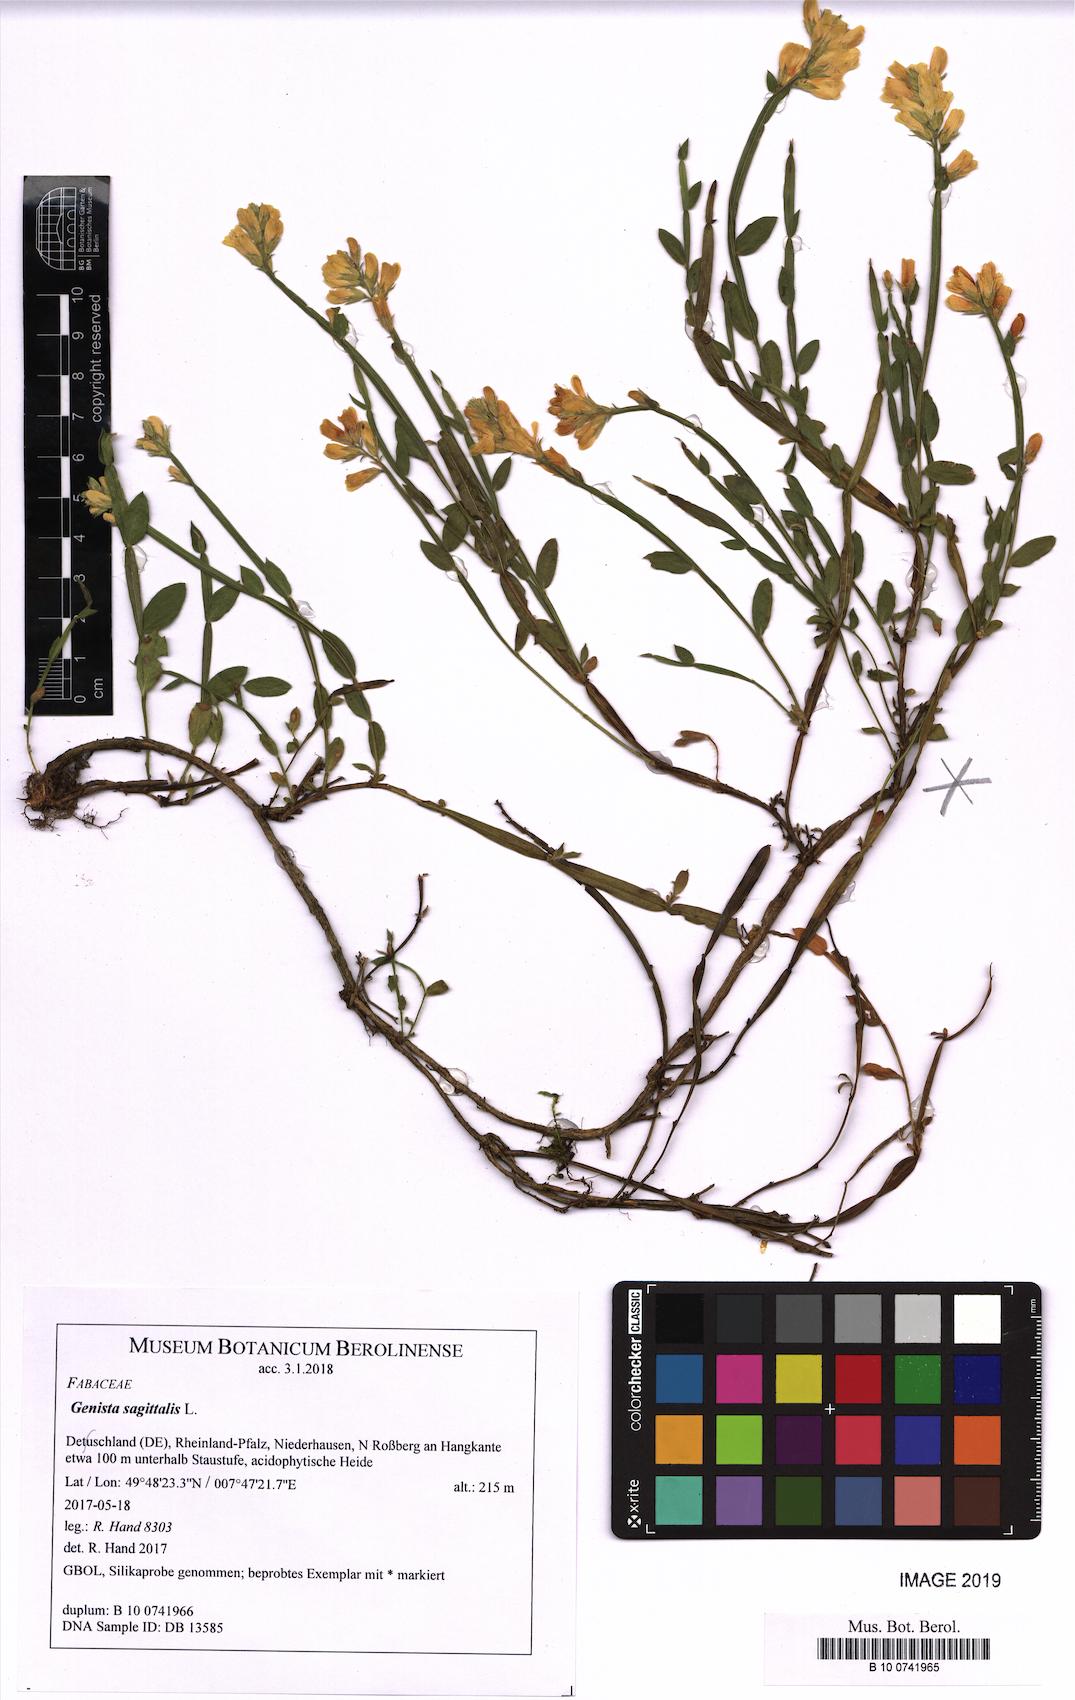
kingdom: Plantae
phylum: Tracheophyta
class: Magnoliopsida
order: Fabales
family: Fabaceae
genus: Genista
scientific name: Genista sagittalis
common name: Winged greenweed
